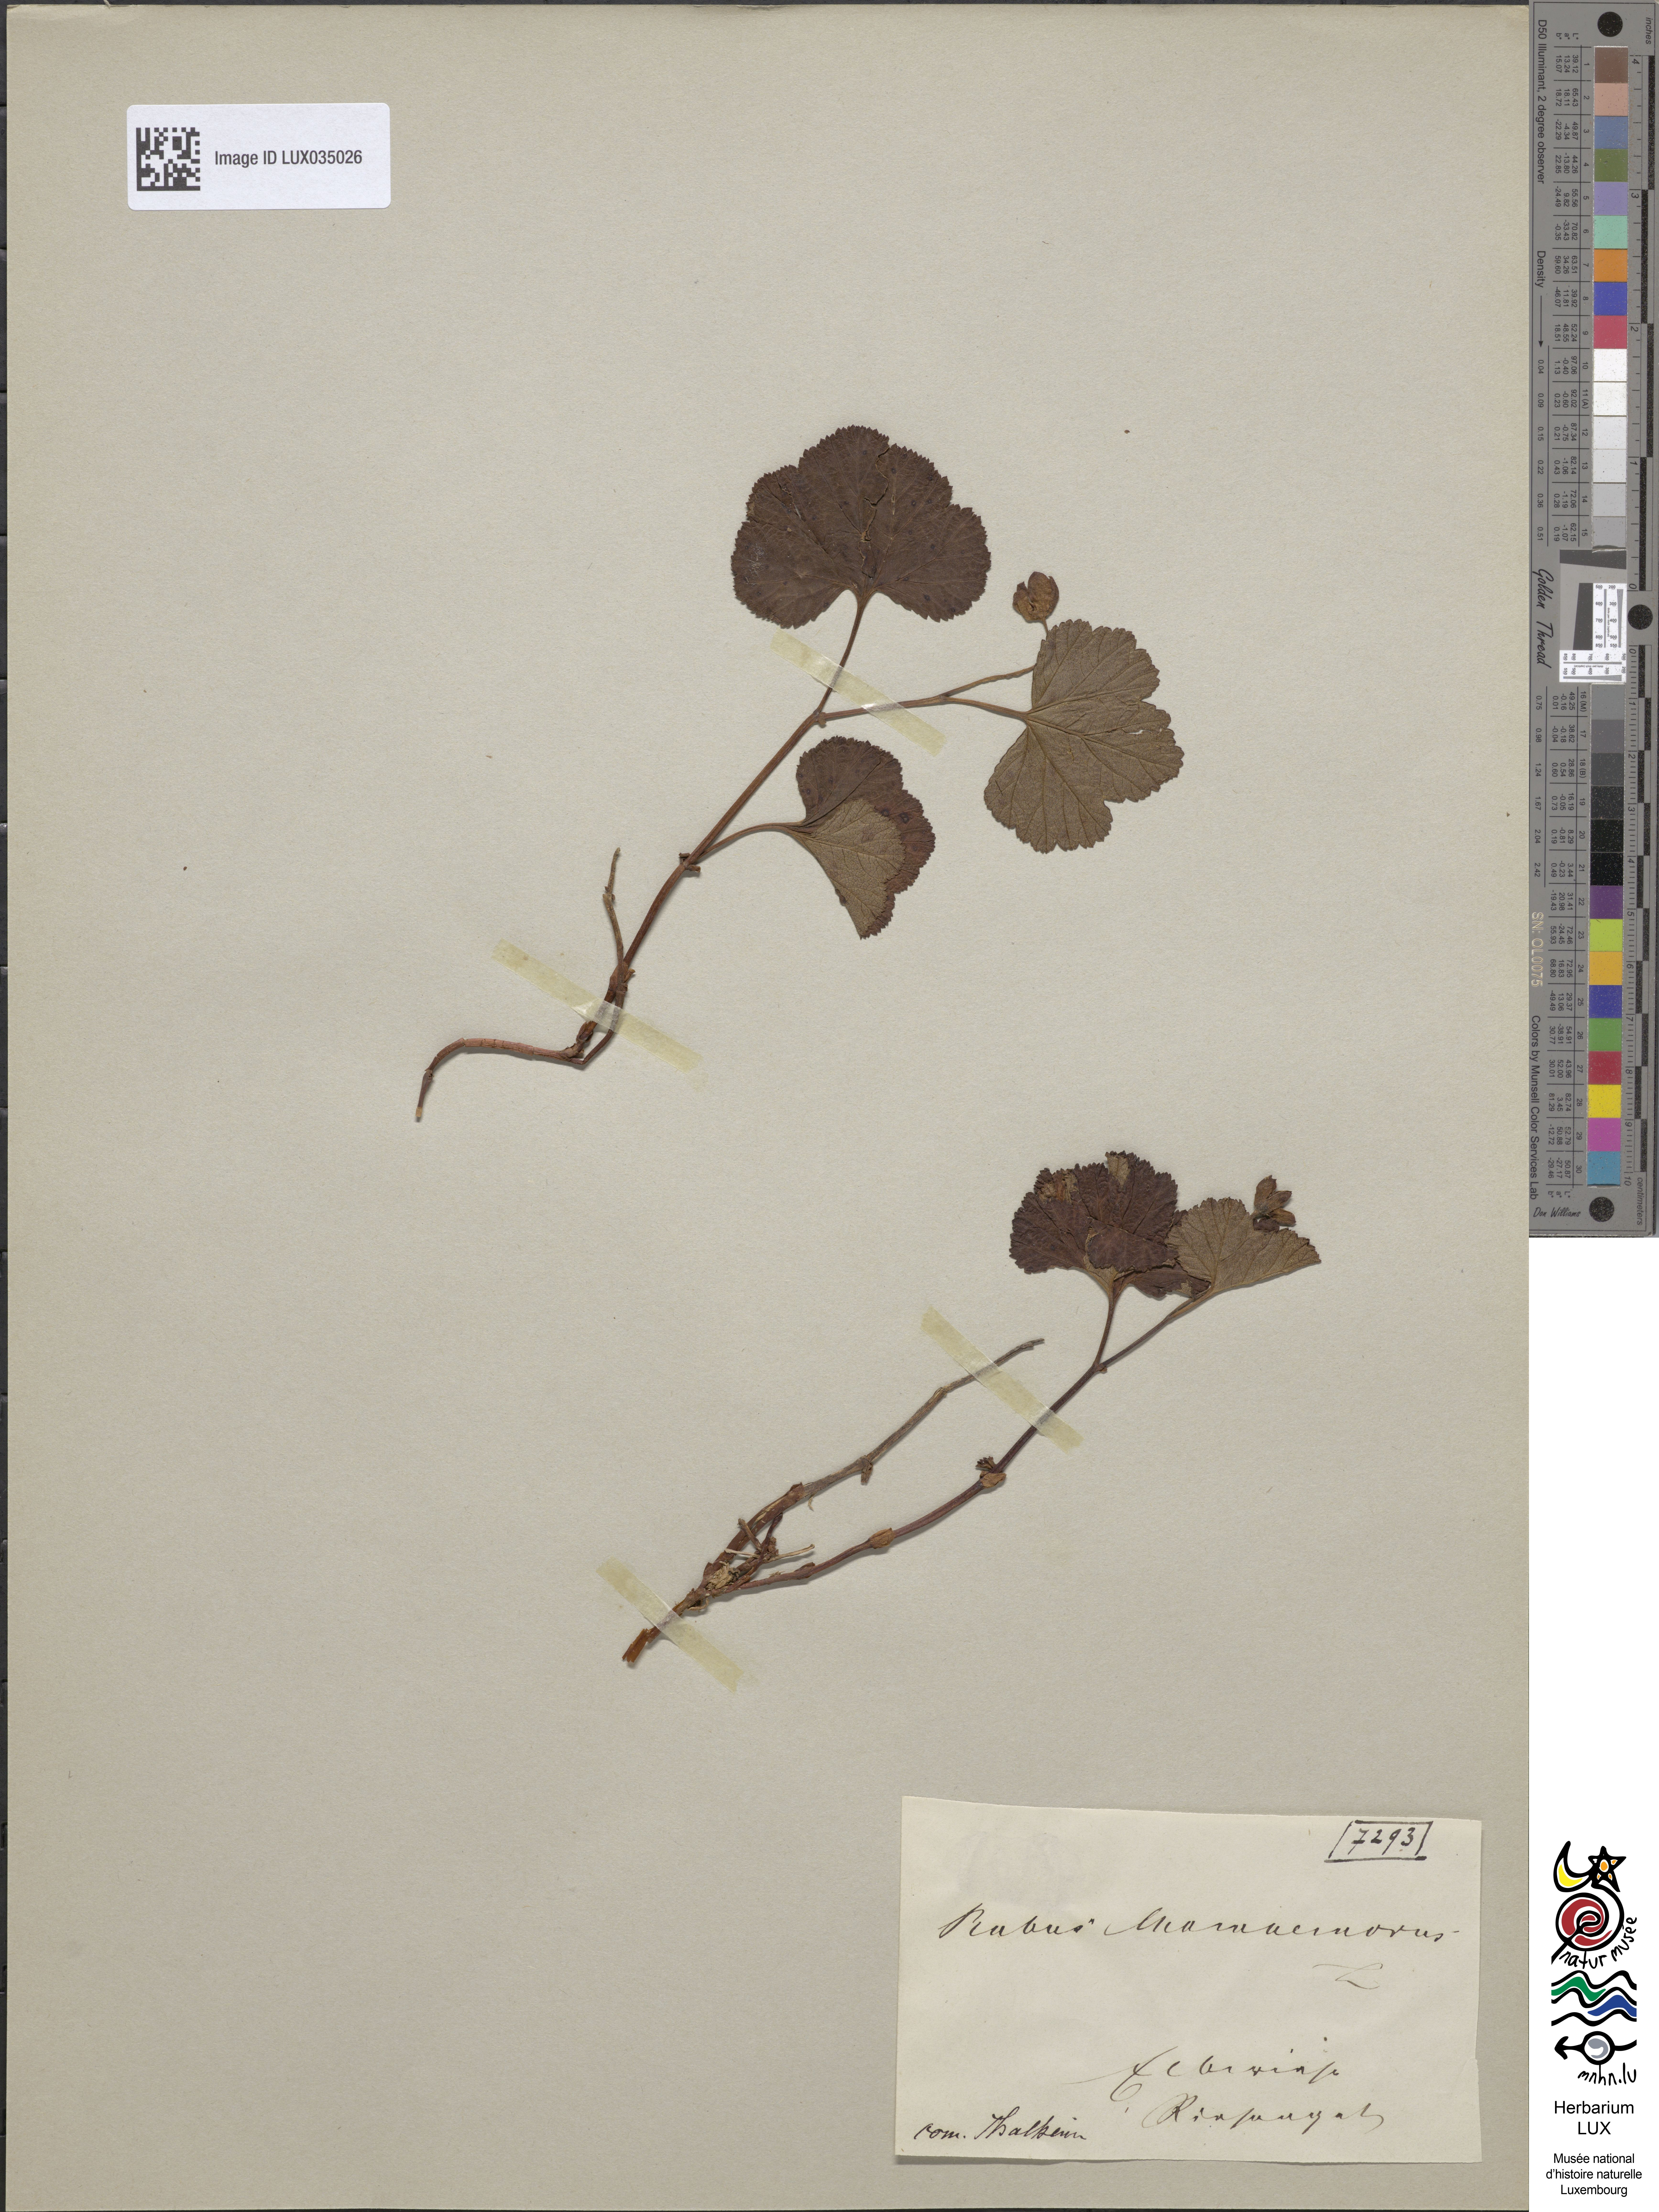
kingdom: Plantae
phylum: Tracheophyta
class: Magnoliopsida
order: Rosales
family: Rosaceae
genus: Rubus
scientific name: Rubus chamaemorus
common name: Cloudberry
